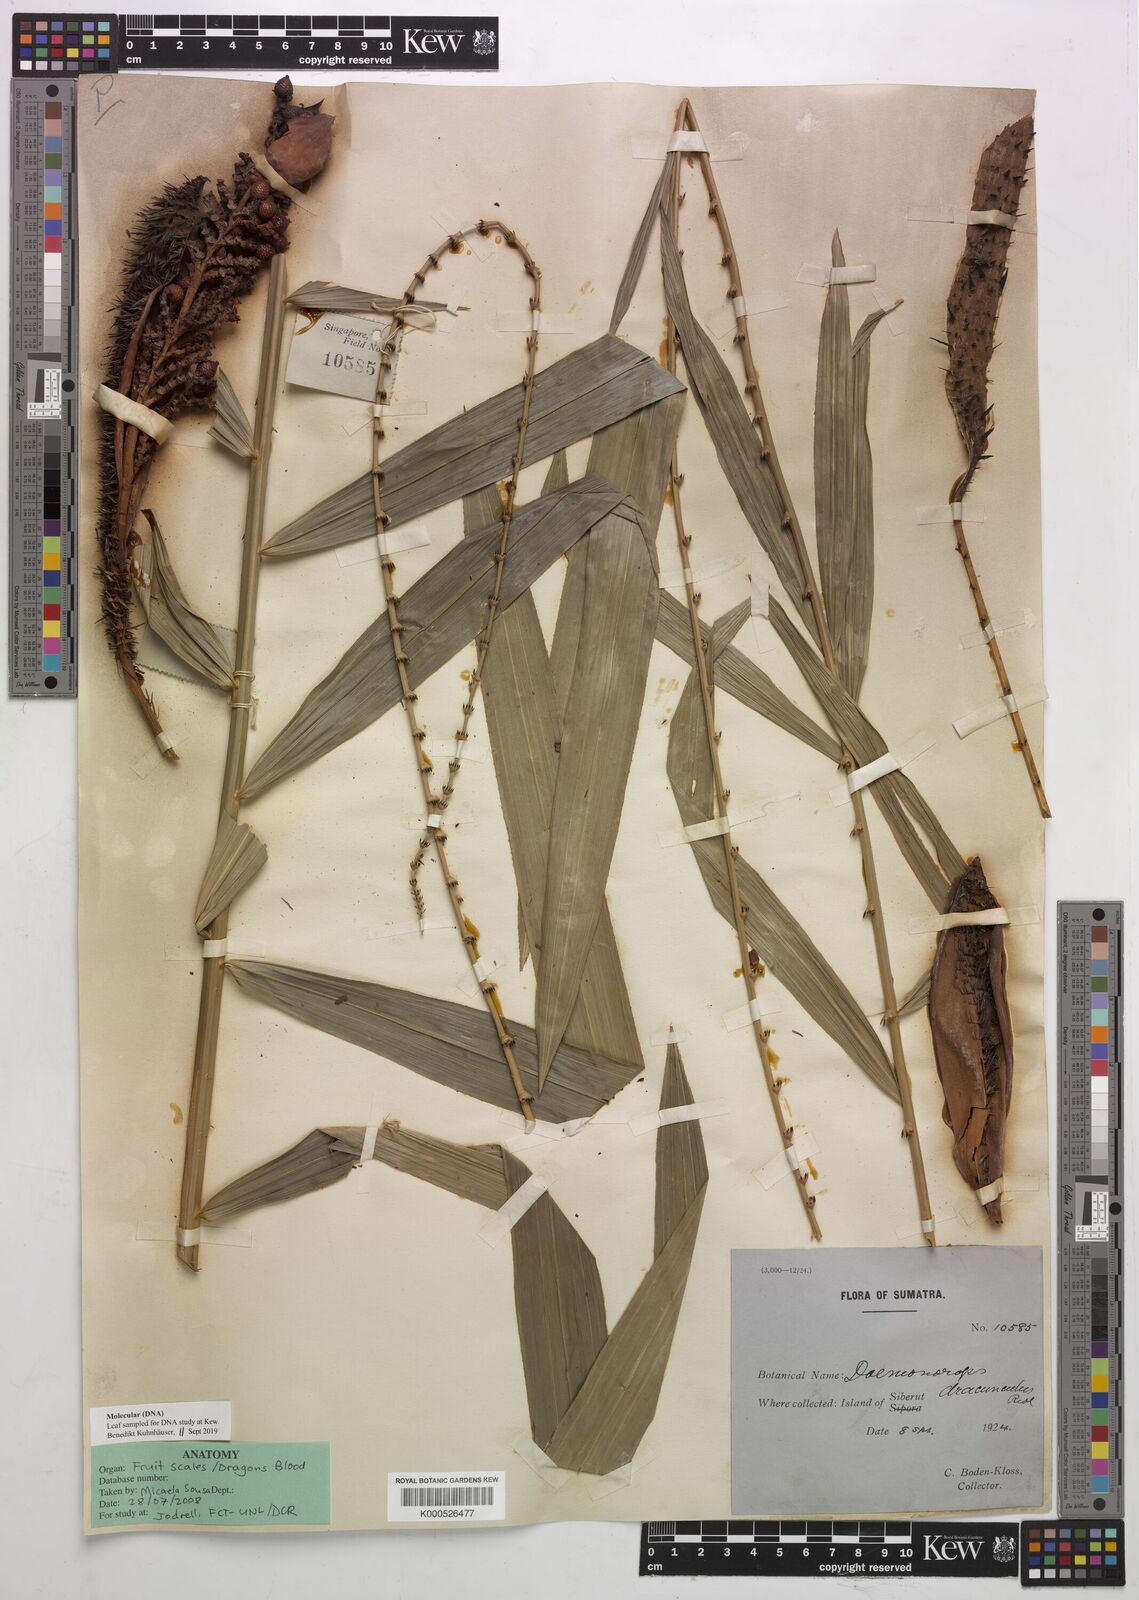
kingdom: Plantae
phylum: Tracheophyta
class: Liliopsida
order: Arecales
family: Arecaceae
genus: Calamus
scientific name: Calamus dracunculus
